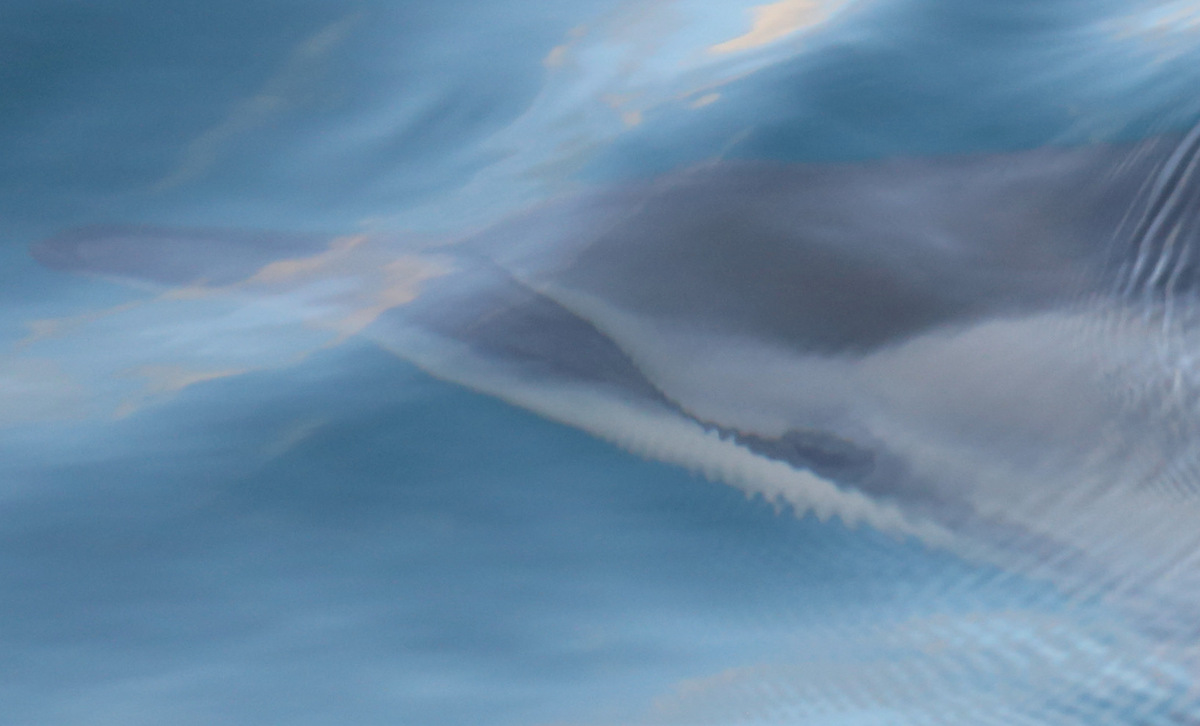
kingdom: Animalia
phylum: Chordata
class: Mammalia
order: Cetacea
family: Delphinidae
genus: Stenella
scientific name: Stenella longirostris
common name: Spinner Dolphin
